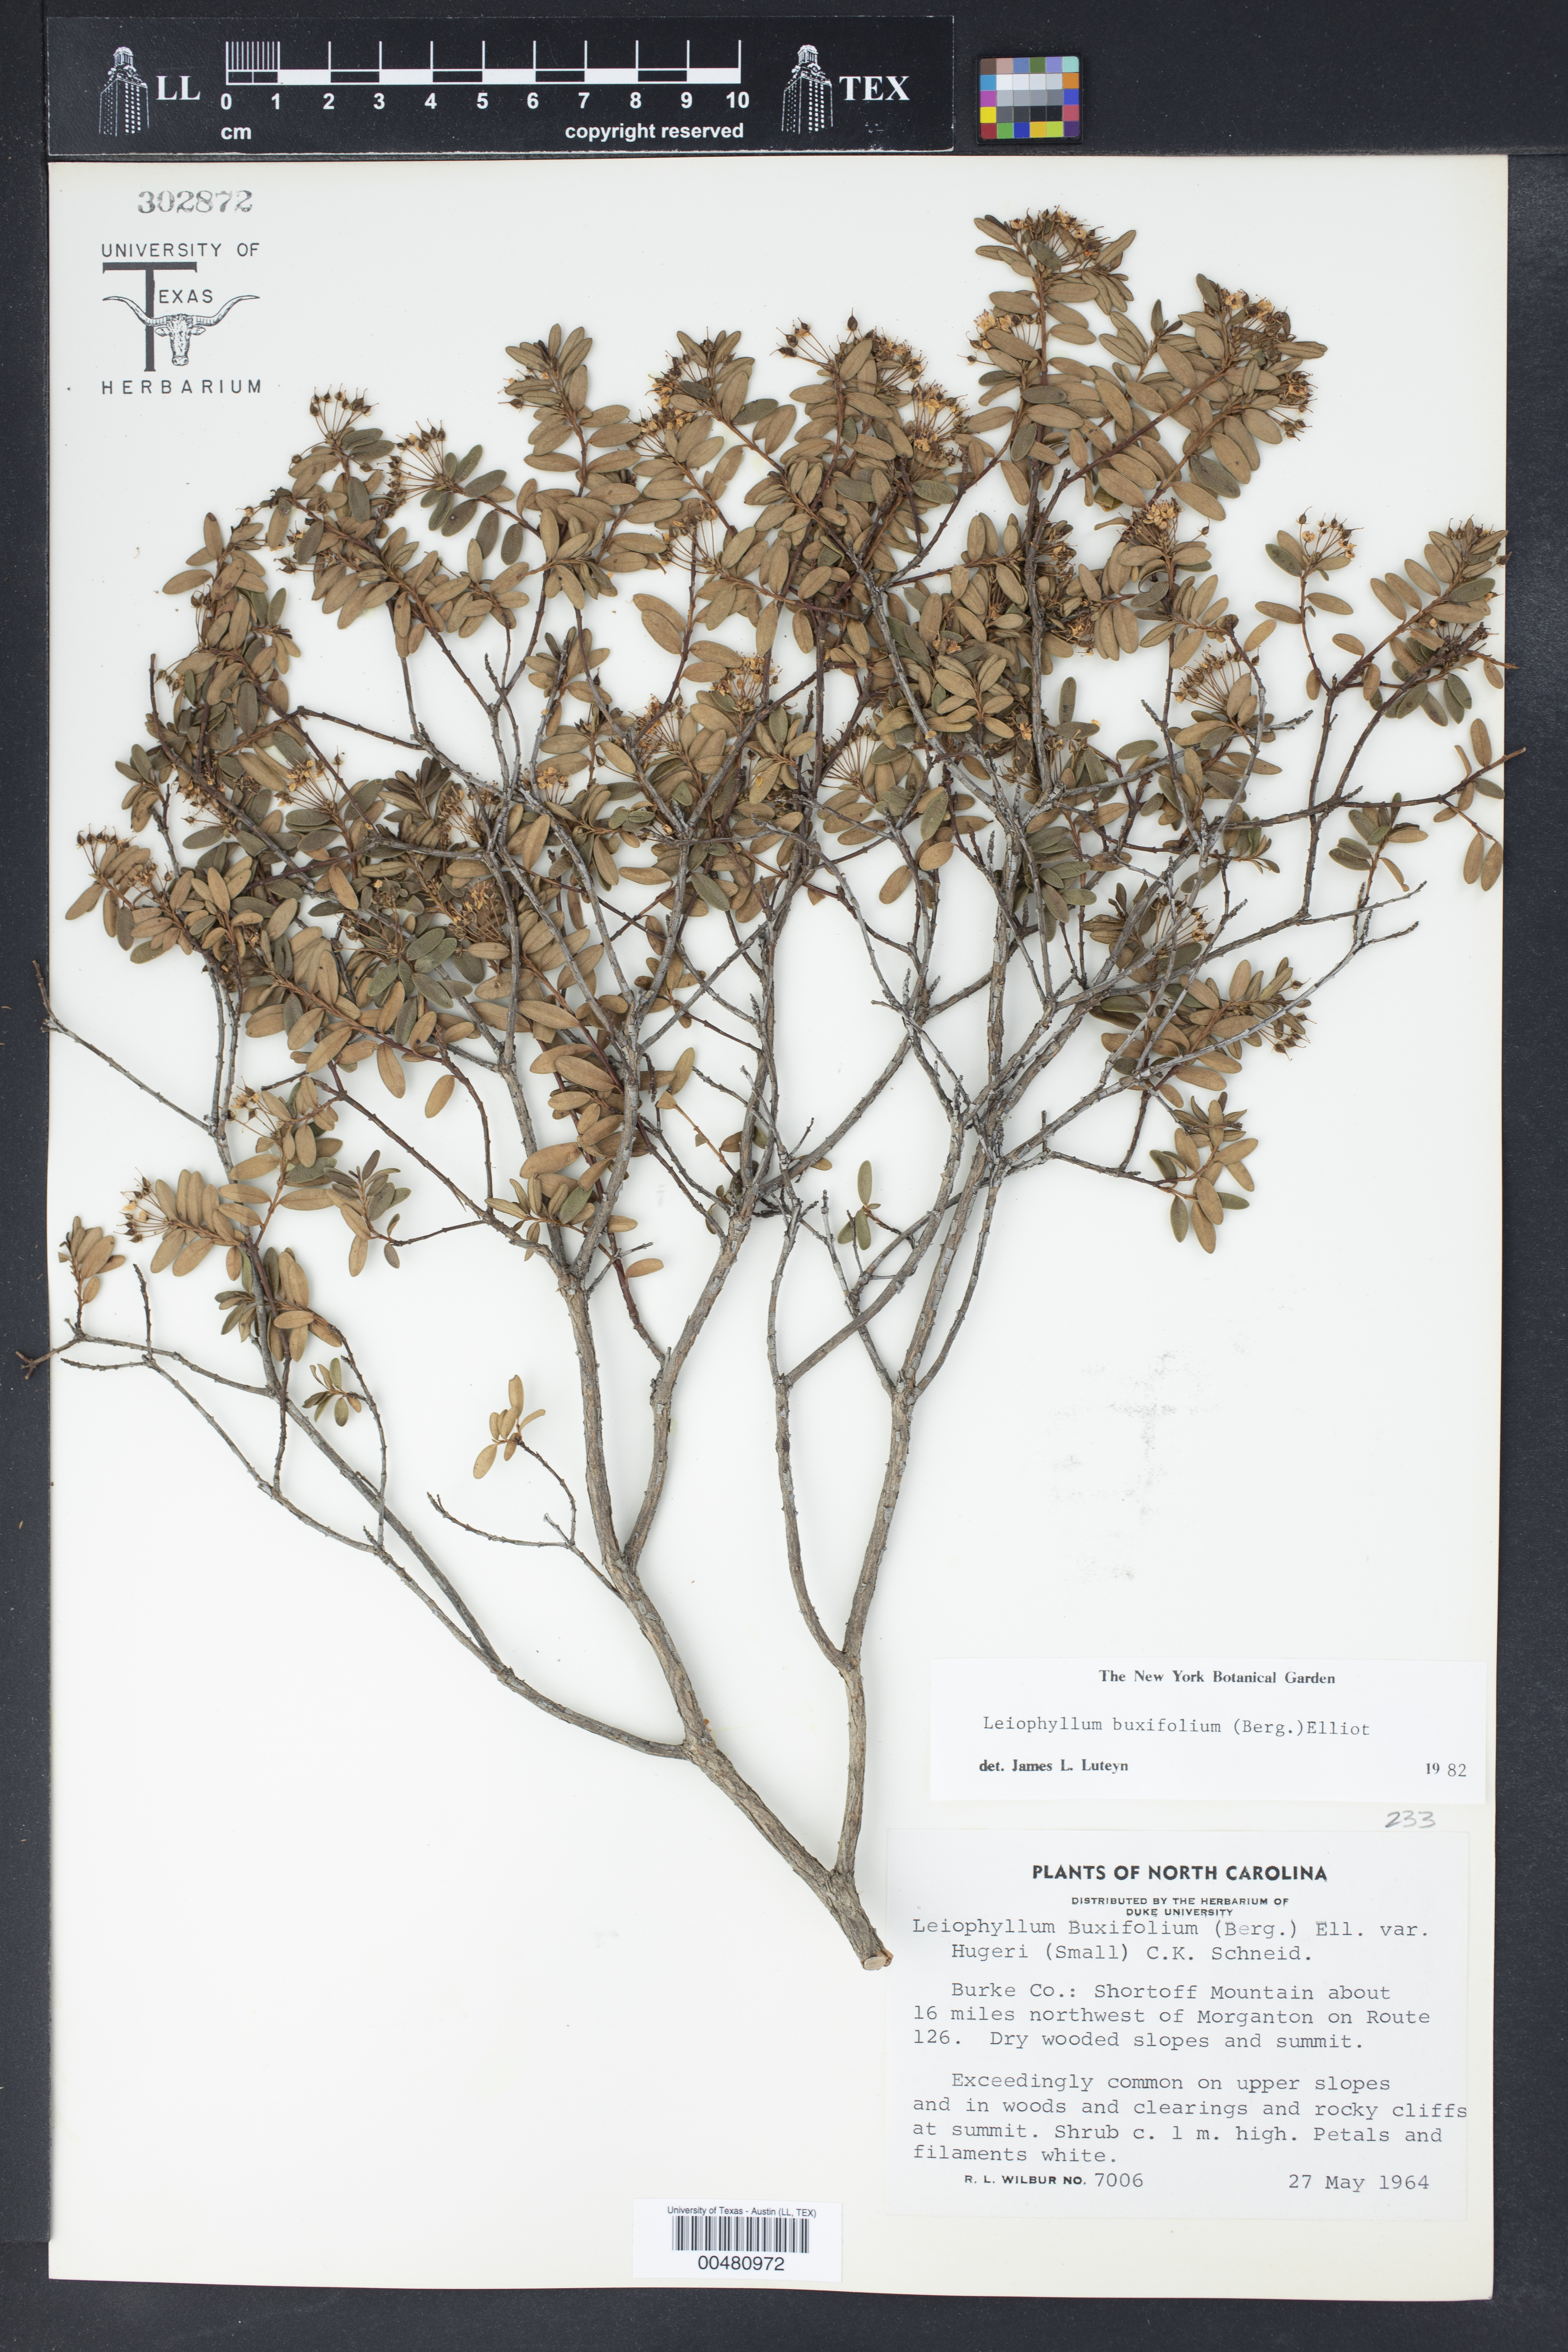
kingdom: Plantae
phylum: Tracheophyta
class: Magnoliopsida
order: Ericales
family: Ericaceae
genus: Kalmia
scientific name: Kalmia buxifolia
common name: Sandmyrtle
